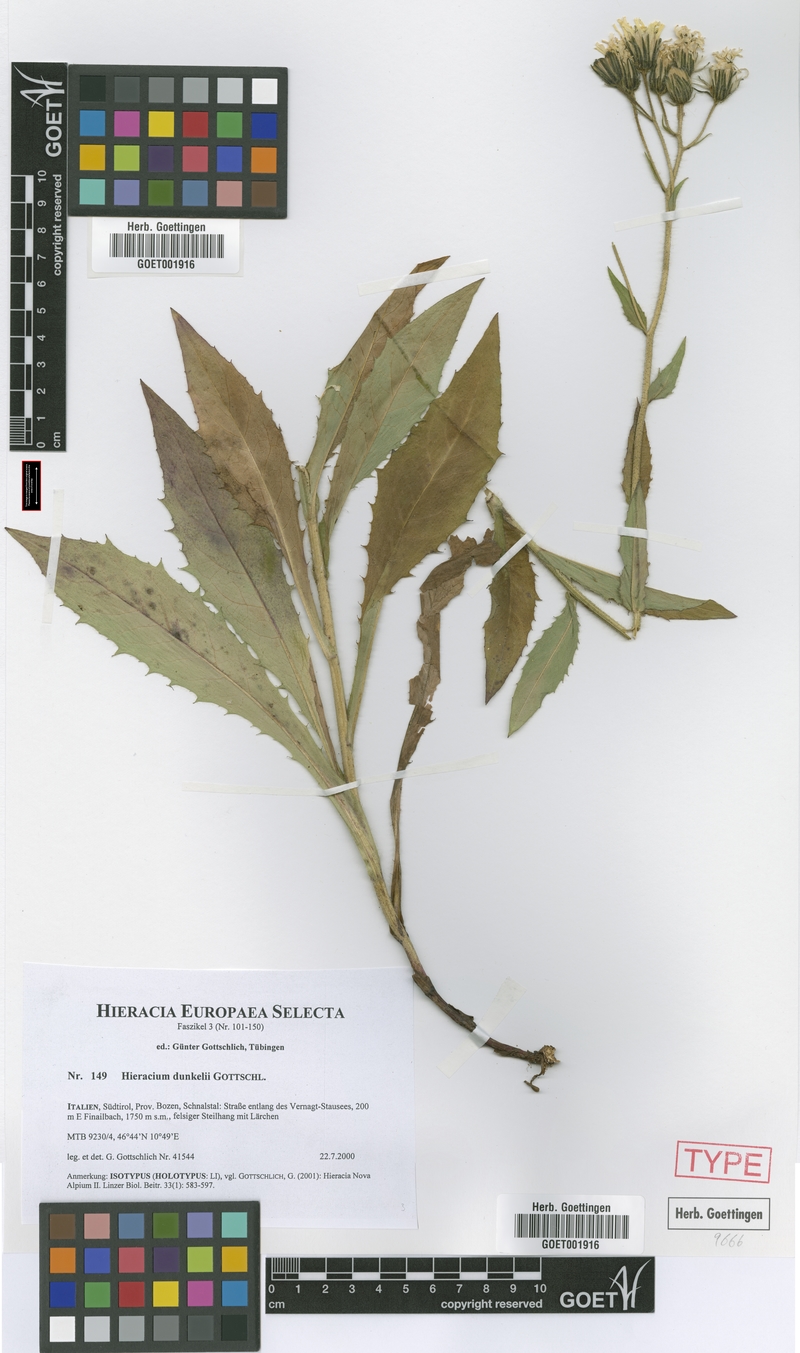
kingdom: Plantae
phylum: Tracheophyta
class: Magnoliopsida
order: Asterales
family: Asteraceae
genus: Hieracium
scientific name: Hieracium dunkelii
